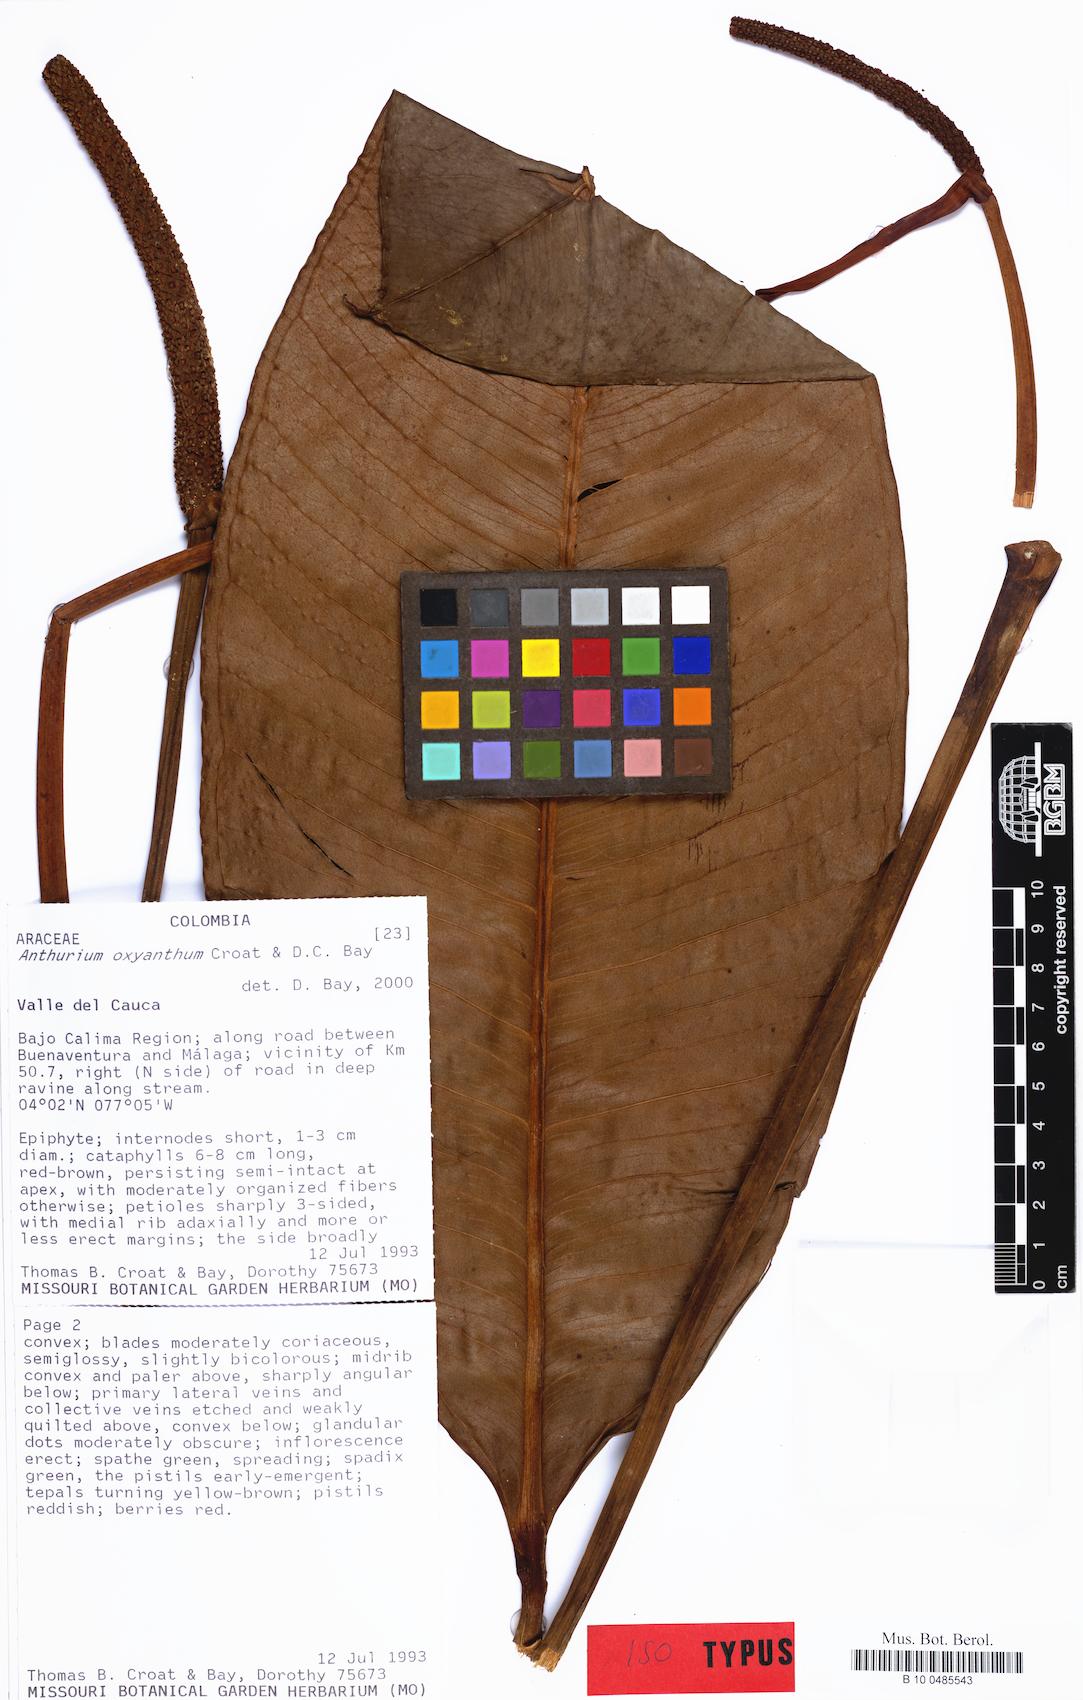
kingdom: Plantae
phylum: Tracheophyta
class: Liliopsida
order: Alismatales
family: Araceae
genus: Anthurium
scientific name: Anthurium oxyanthum
